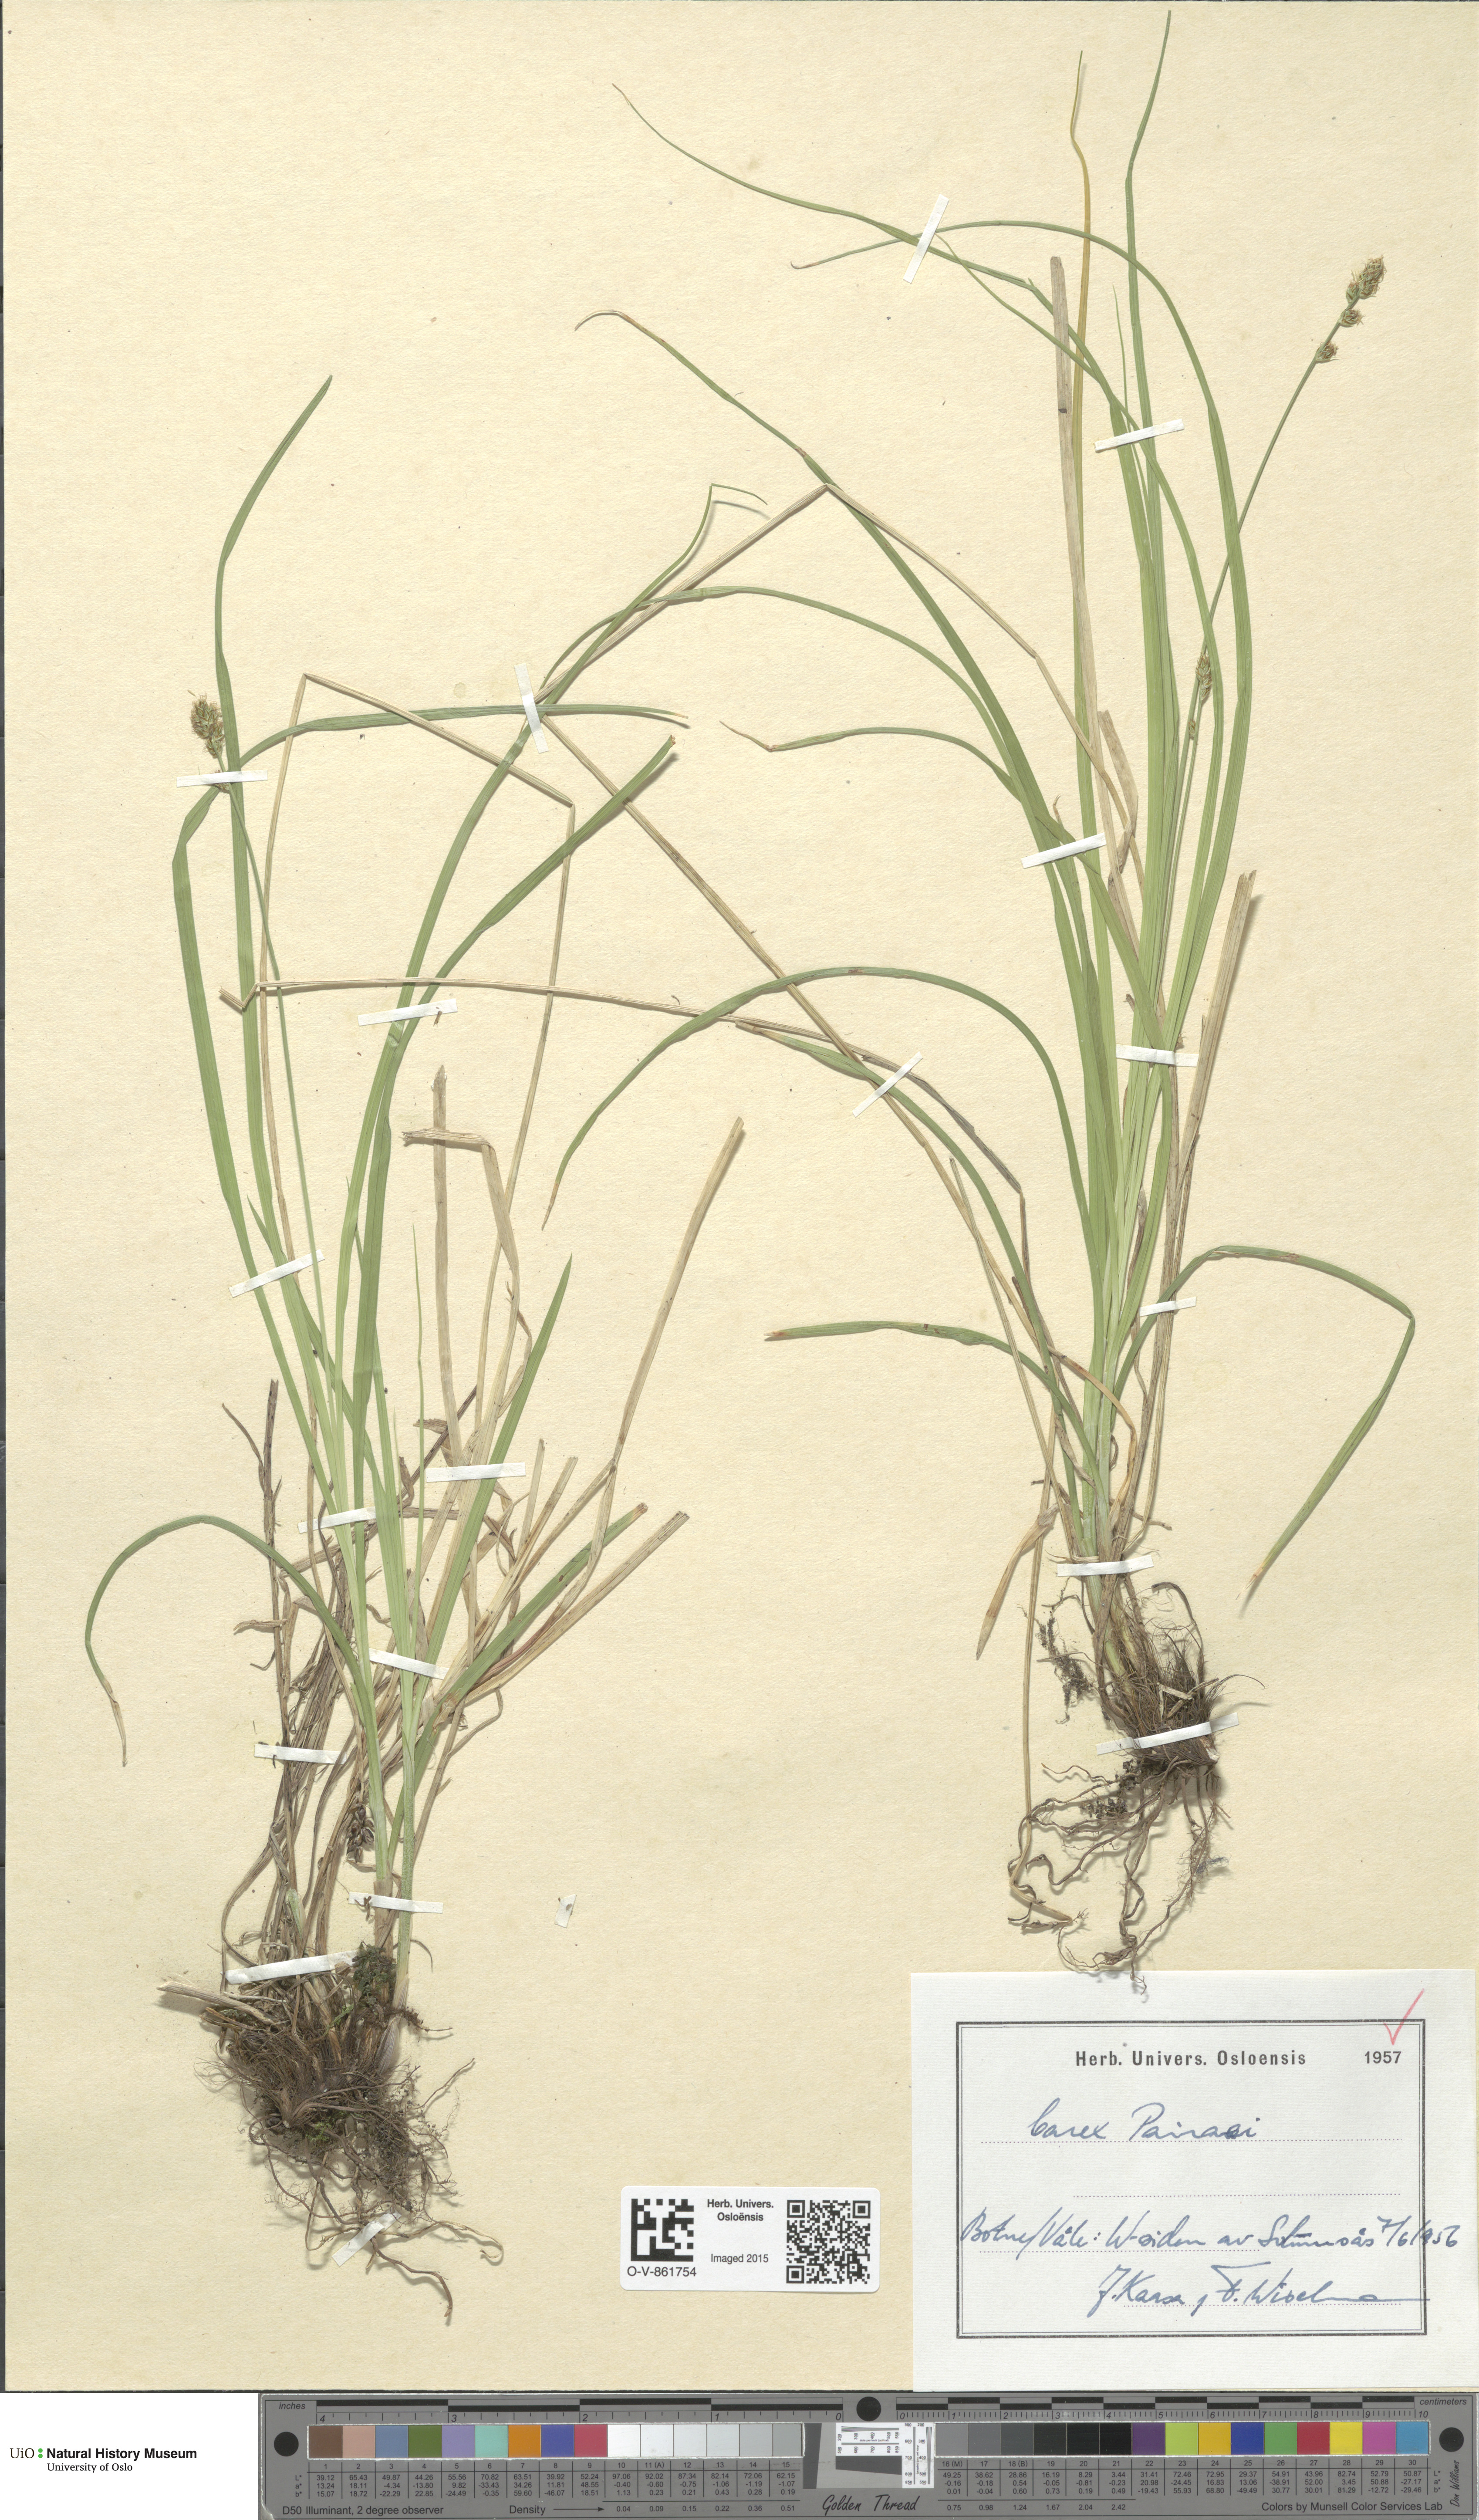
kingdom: Plantae
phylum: Tracheophyta
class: Liliopsida
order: Poales
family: Cyperaceae
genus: Carex
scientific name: Carex pairae
